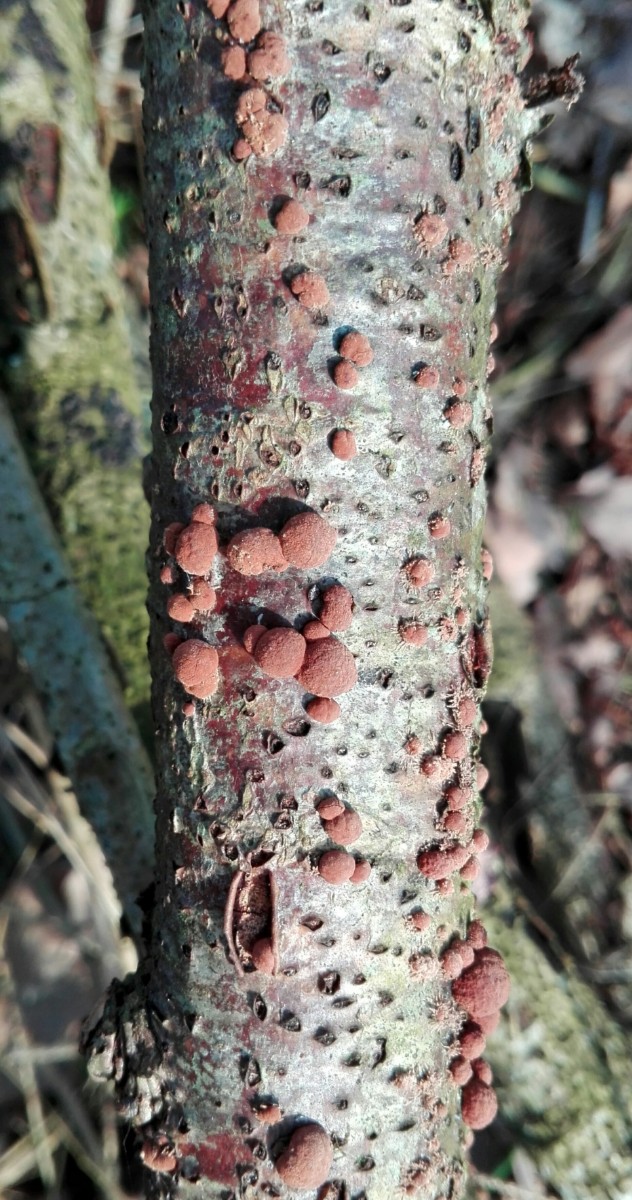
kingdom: Fungi
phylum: Ascomycota
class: Sordariomycetes
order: Xylariales
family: Hypoxylaceae
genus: Hypoxylon
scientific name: Hypoxylon howeanum
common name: halvkugleformet kulbær
